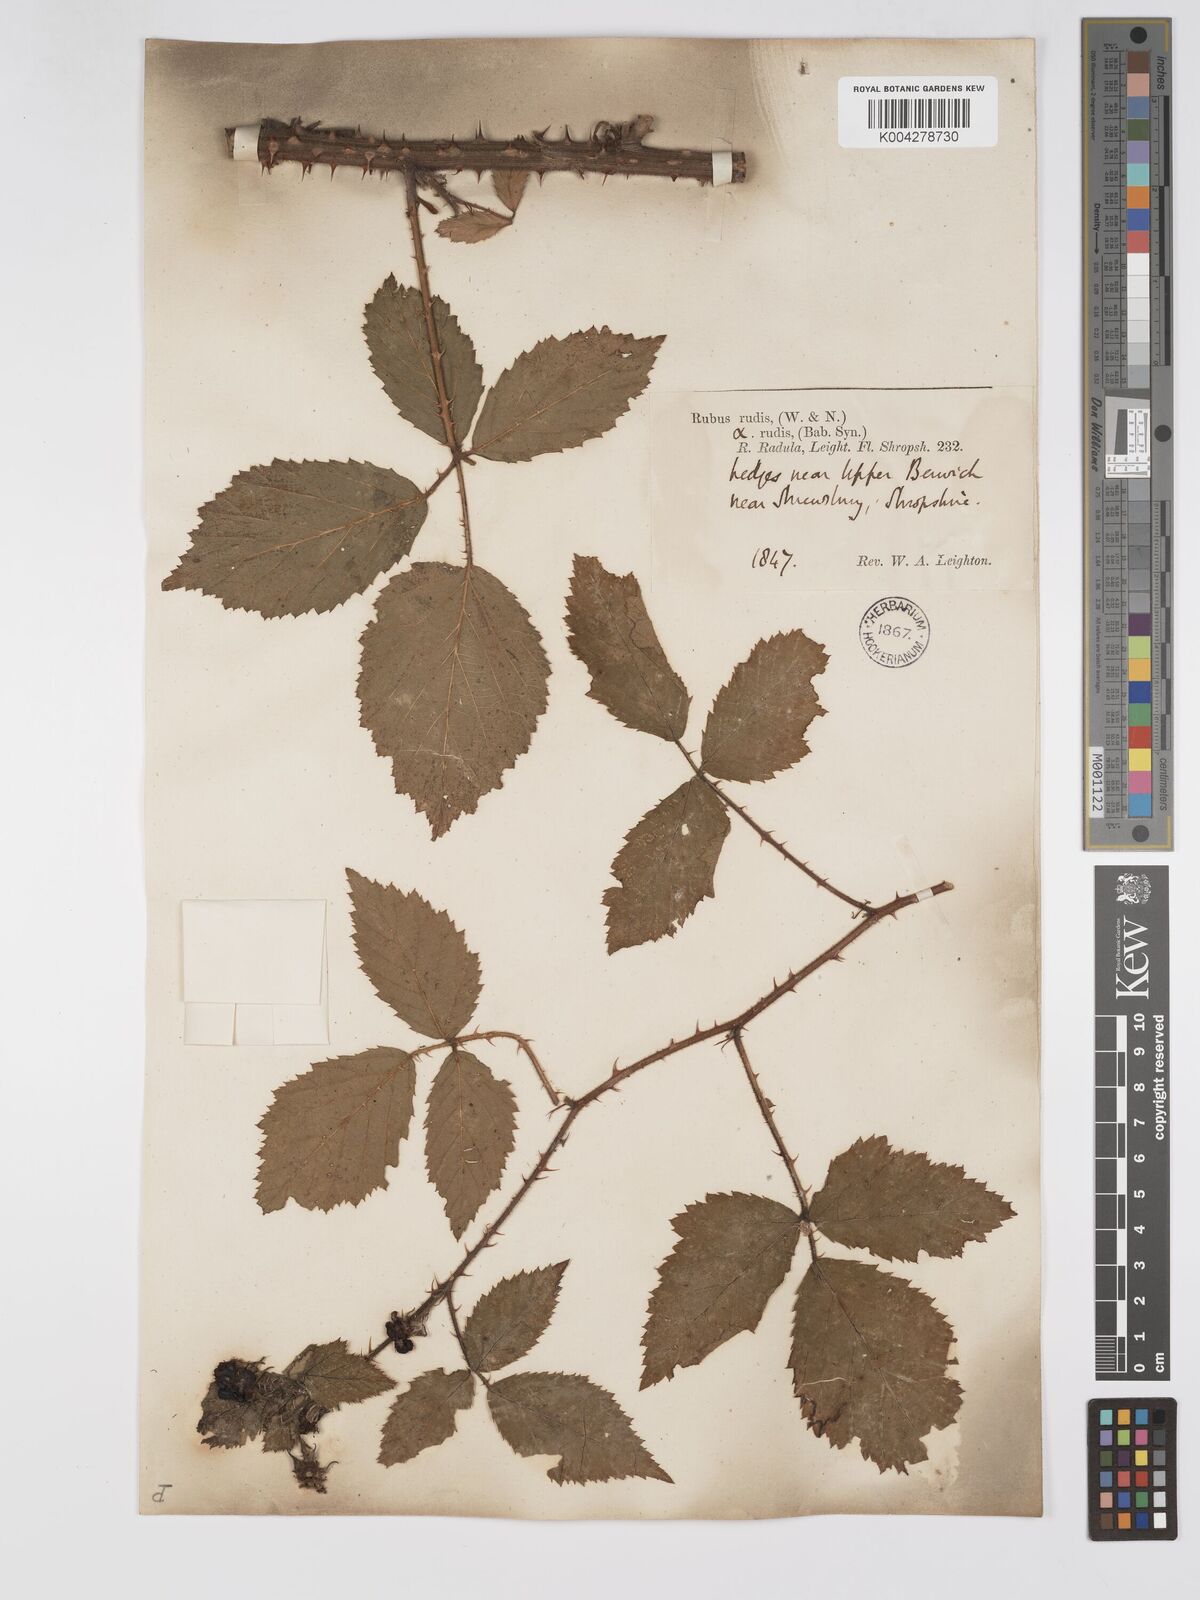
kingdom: Plantae
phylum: Tracheophyta
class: Magnoliopsida
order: Rosales
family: Rosaceae
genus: Rubus
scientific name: Rubus echinatus
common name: Echinate bramble
